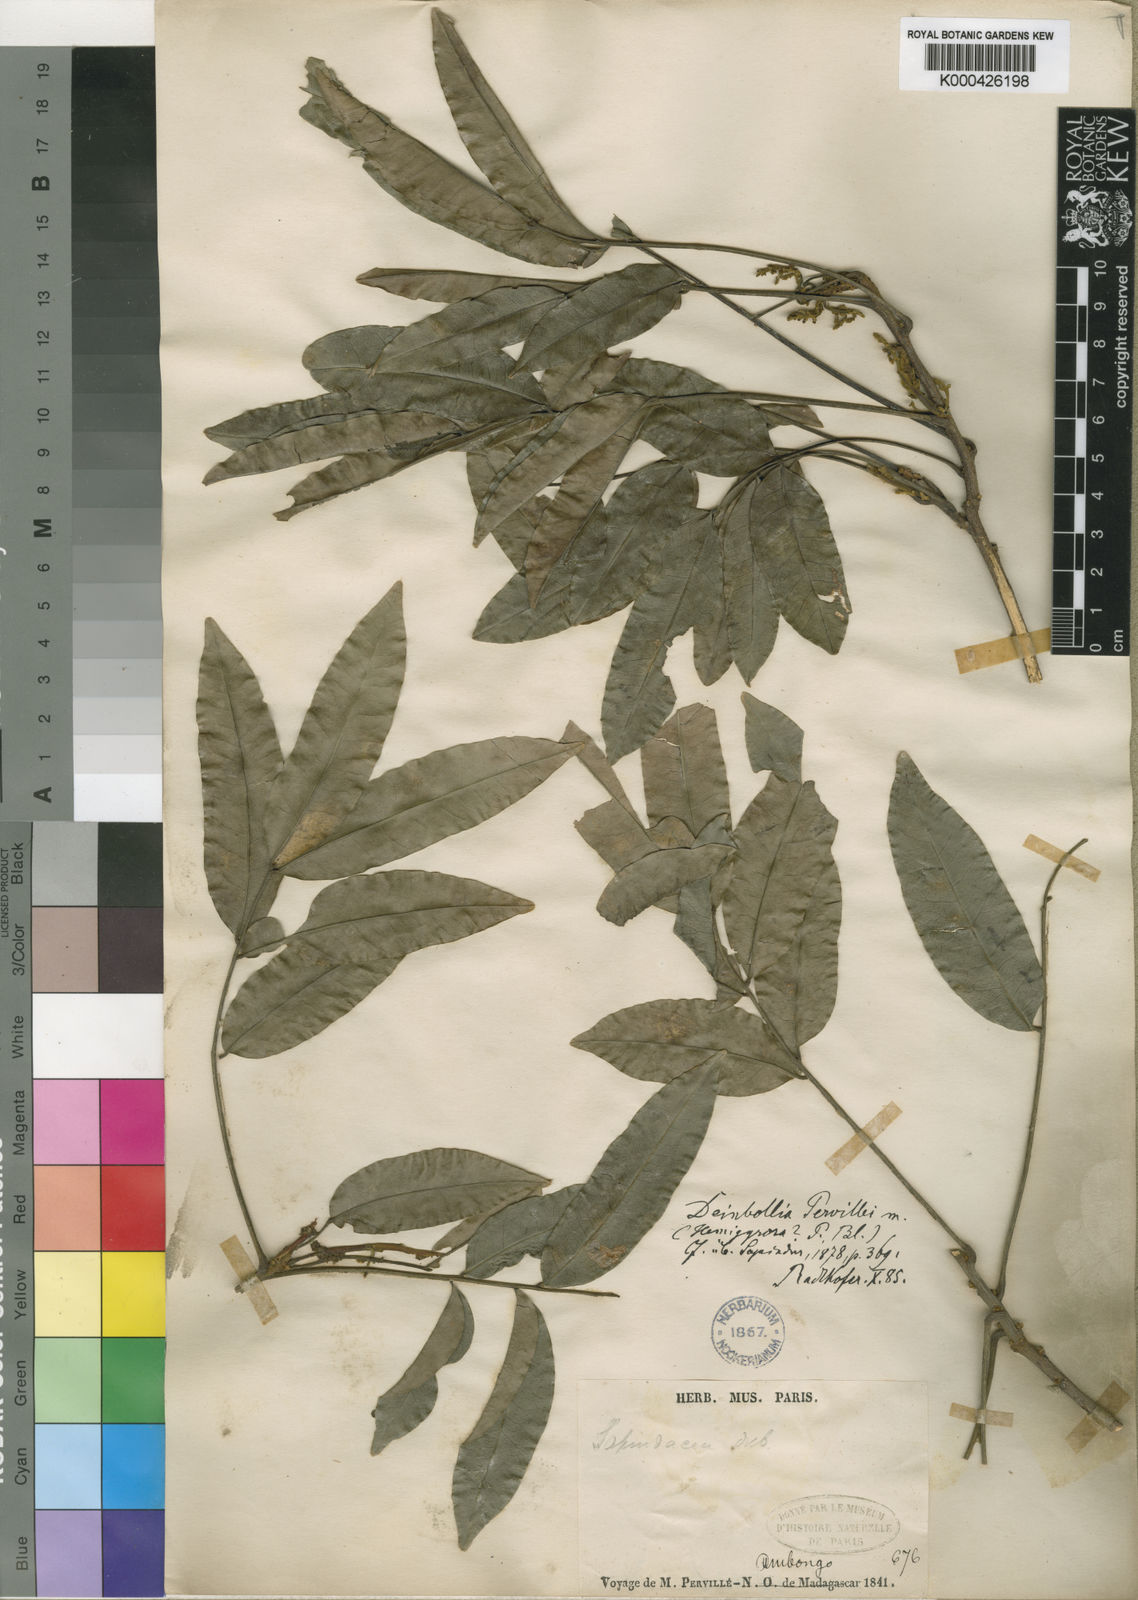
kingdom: Plantae
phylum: Tracheophyta
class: Magnoliopsida
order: Sapindales
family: Sapindaceae
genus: Deinbollia
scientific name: Deinbollia pervillei
